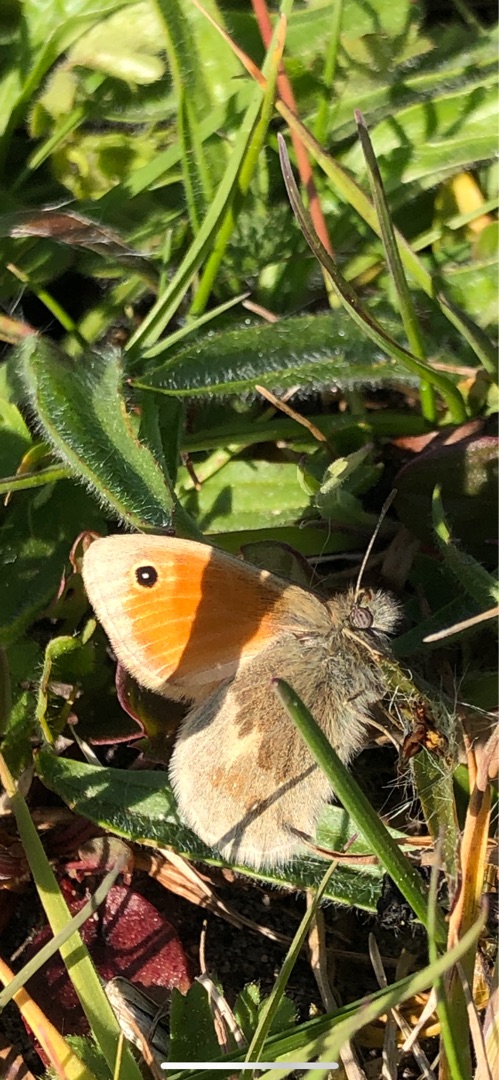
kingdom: Animalia
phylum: Arthropoda
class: Insecta
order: Lepidoptera
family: Nymphalidae
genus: Coenonympha
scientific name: Coenonympha pamphilus
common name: Okkergul randøje
